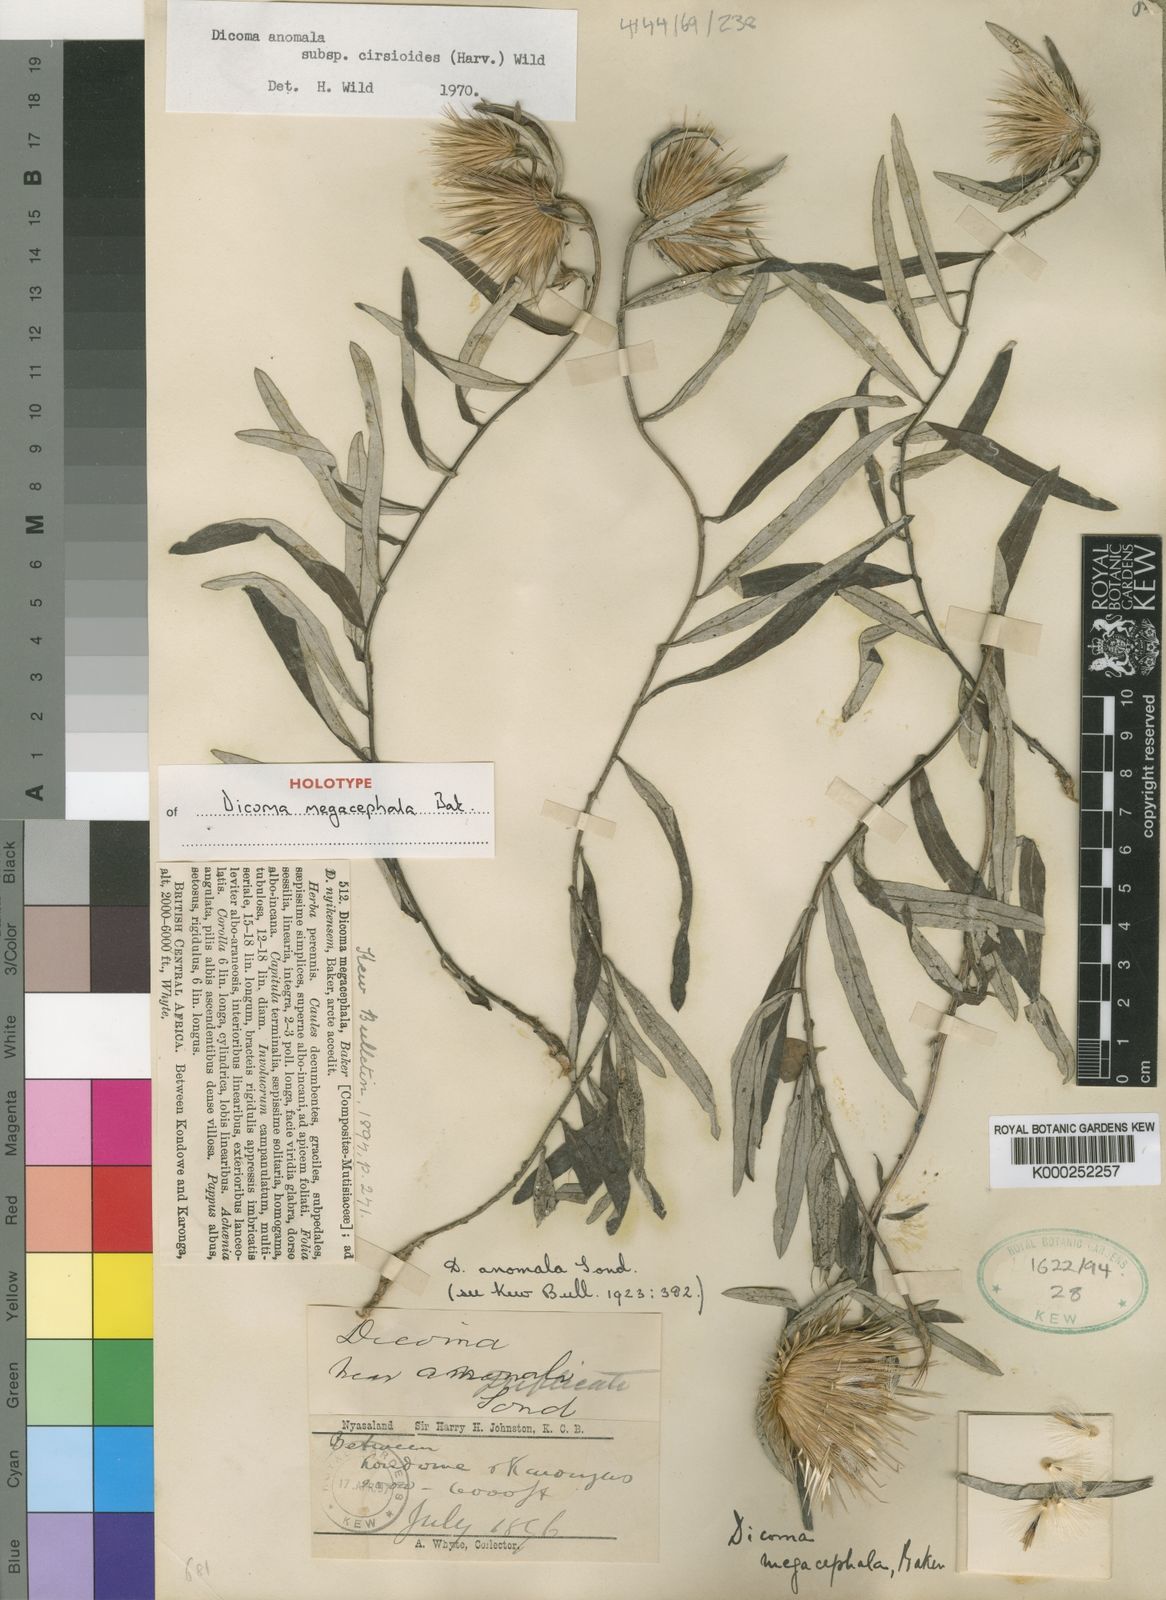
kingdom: Plantae
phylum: Tracheophyta
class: Magnoliopsida
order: Asterales
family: Asteraceae
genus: Dicoma
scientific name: Dicoma anomala
